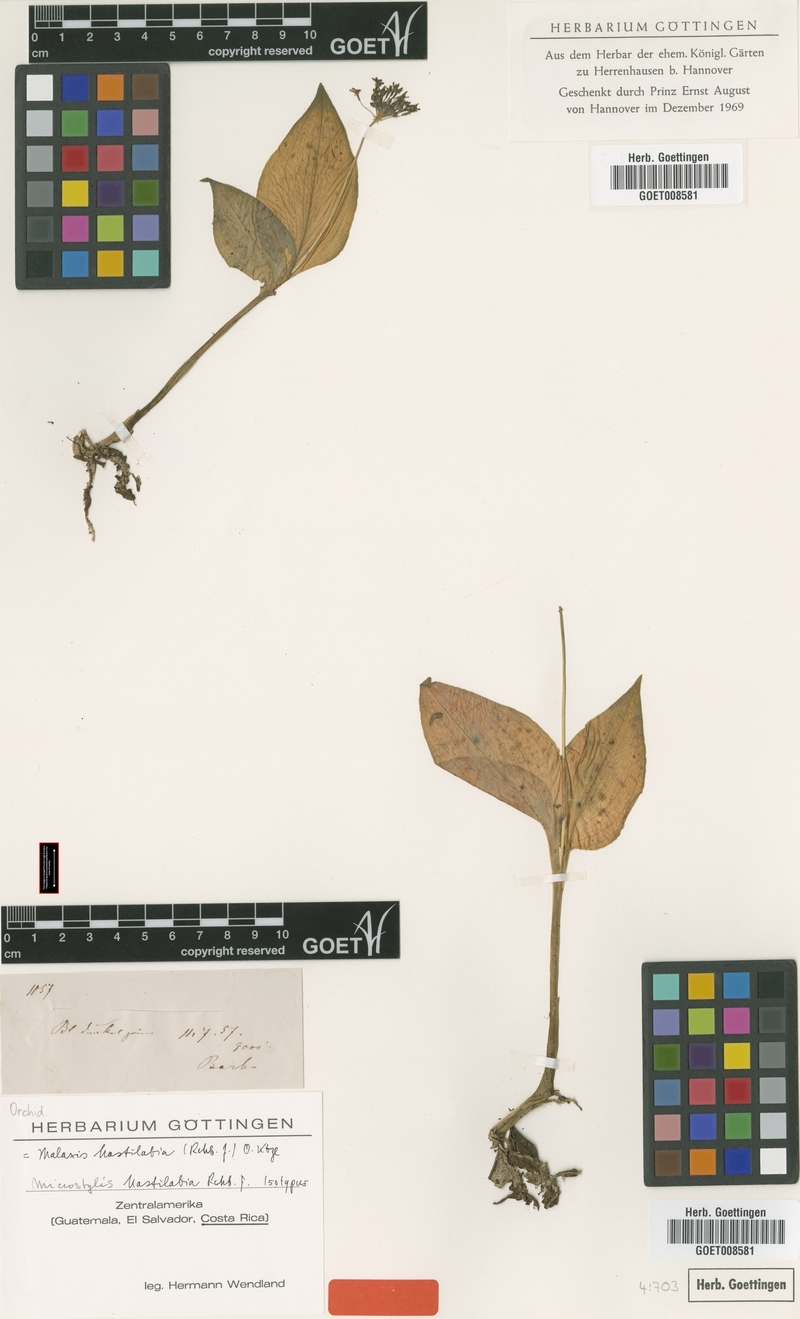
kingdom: Plantae
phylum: Tracheophyta
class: Liliopsida
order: Asparagales
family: Orchidaceae
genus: Malaxis
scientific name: Malaxis excavata
